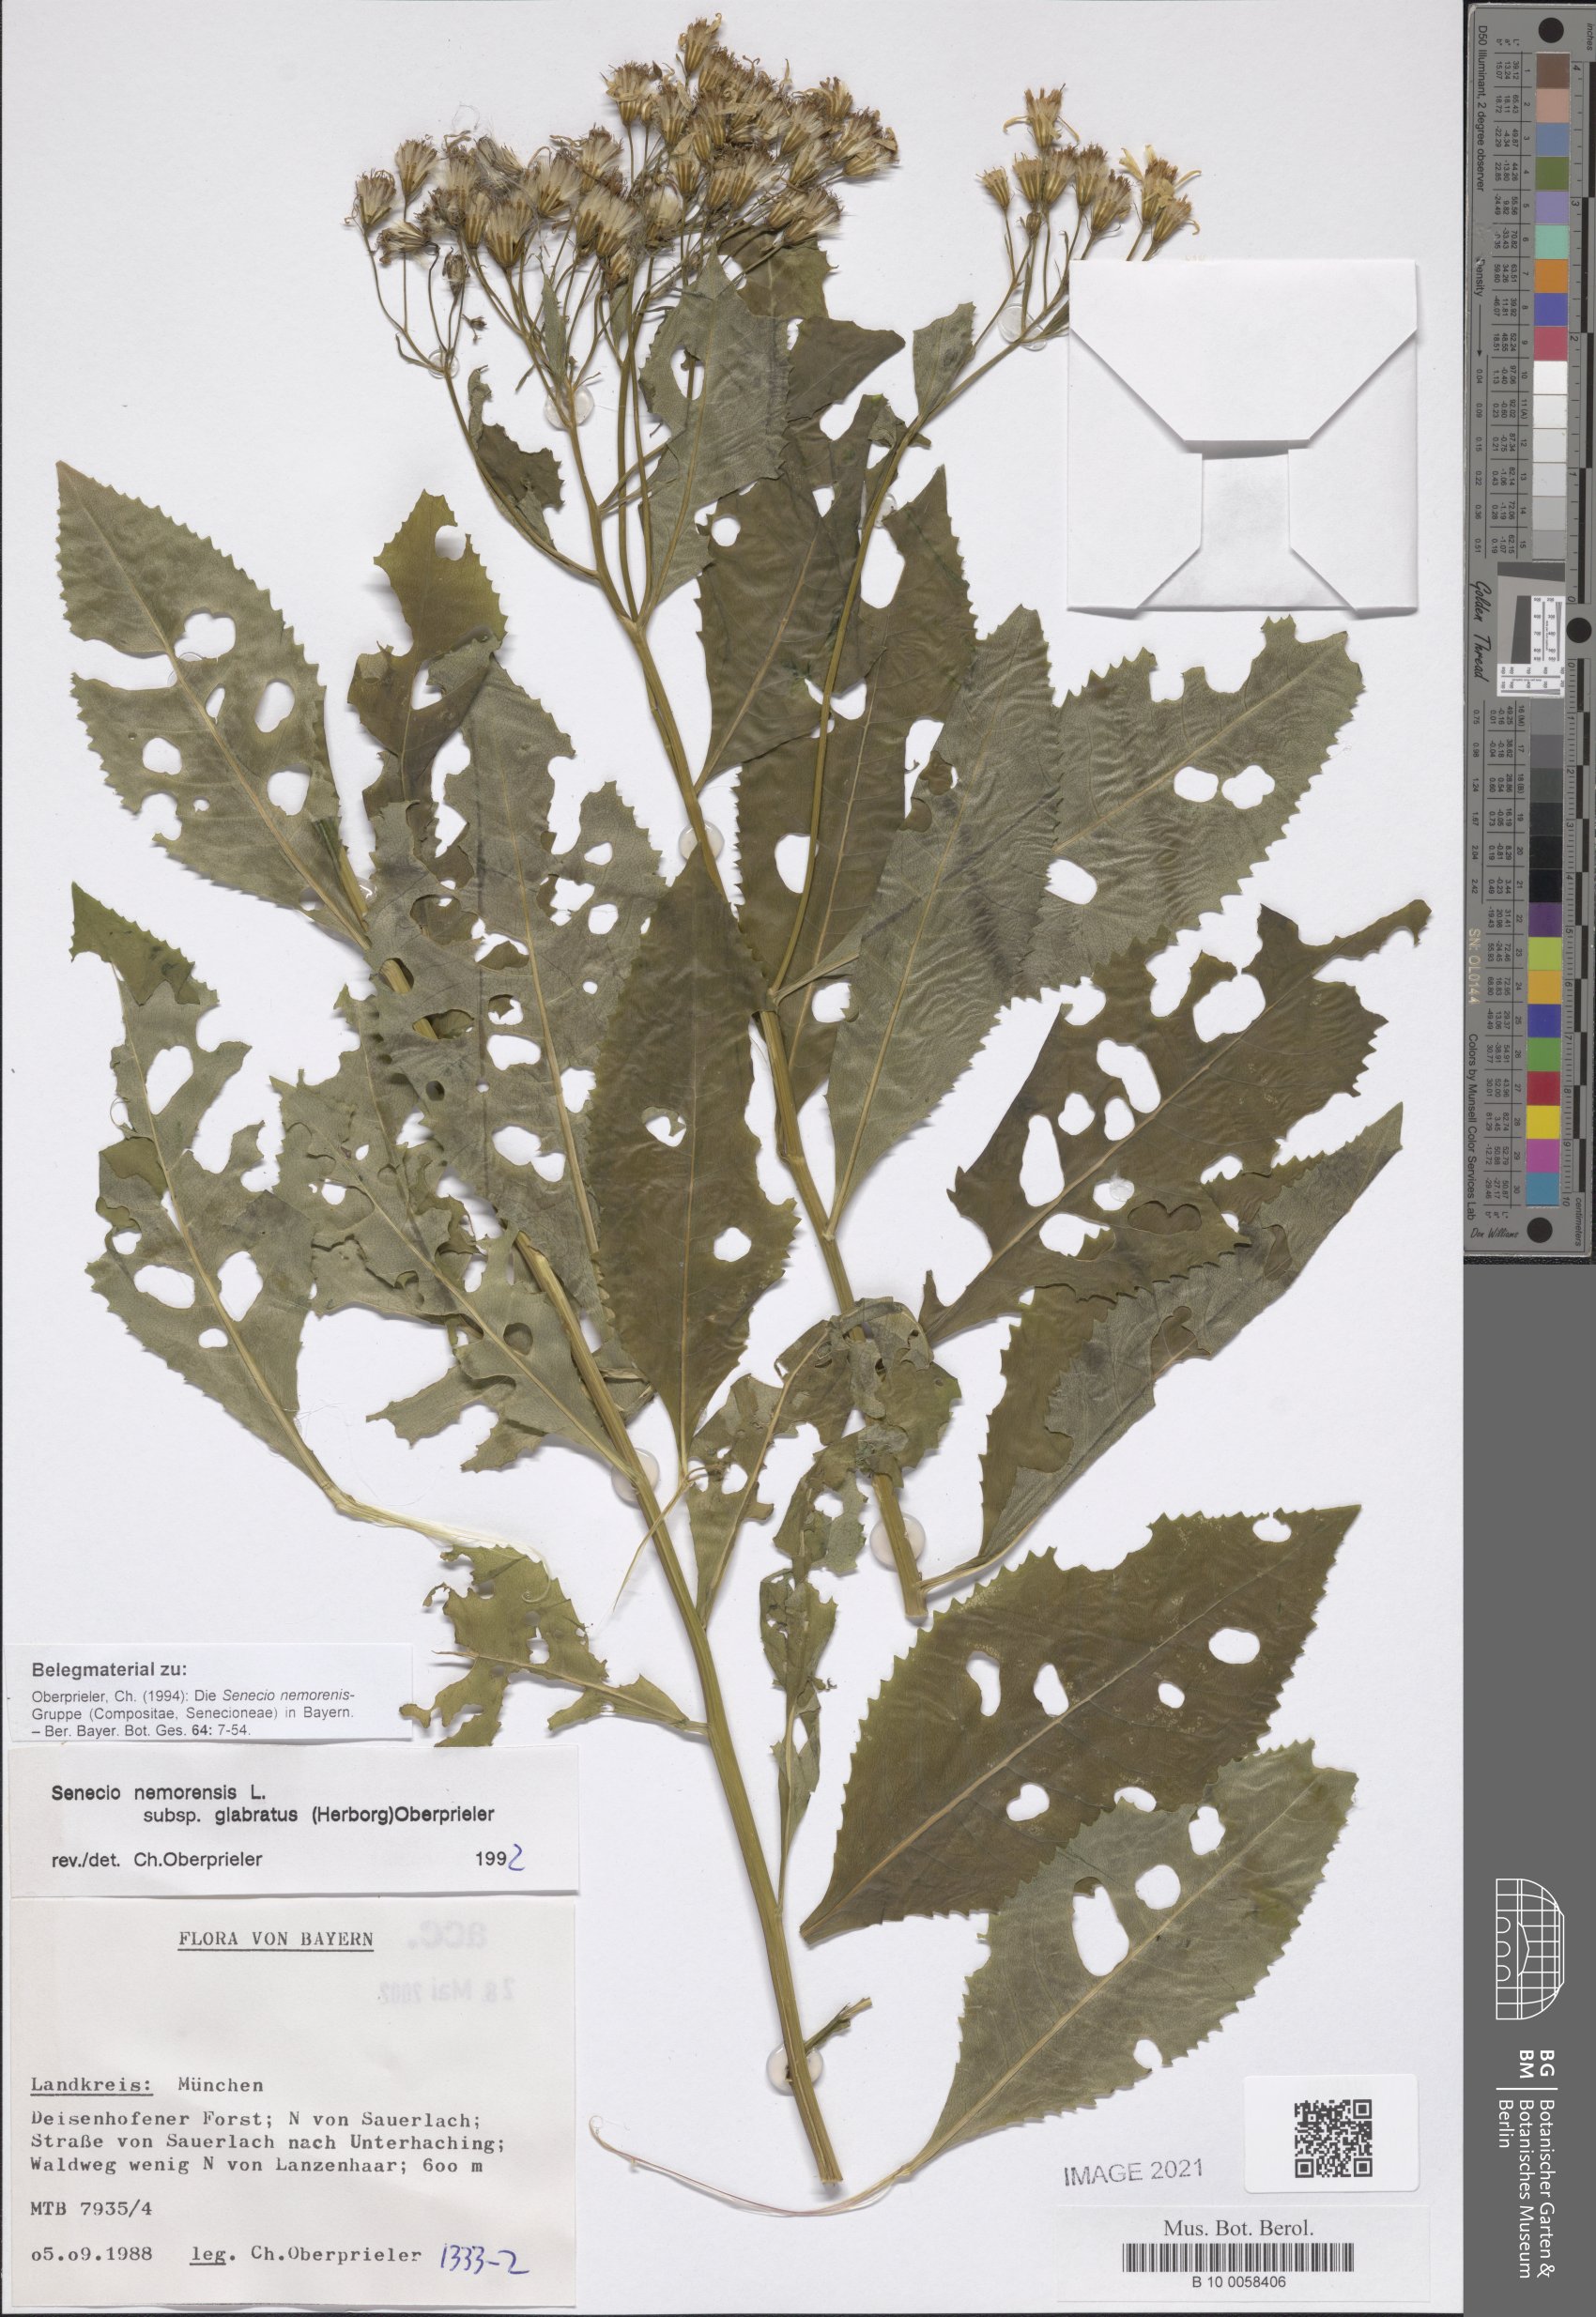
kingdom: Plantae
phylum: Tracheophyta
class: Magnoliopsida
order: Asterales
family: Asteraceae
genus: Senecio
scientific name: Senecio germanicus
